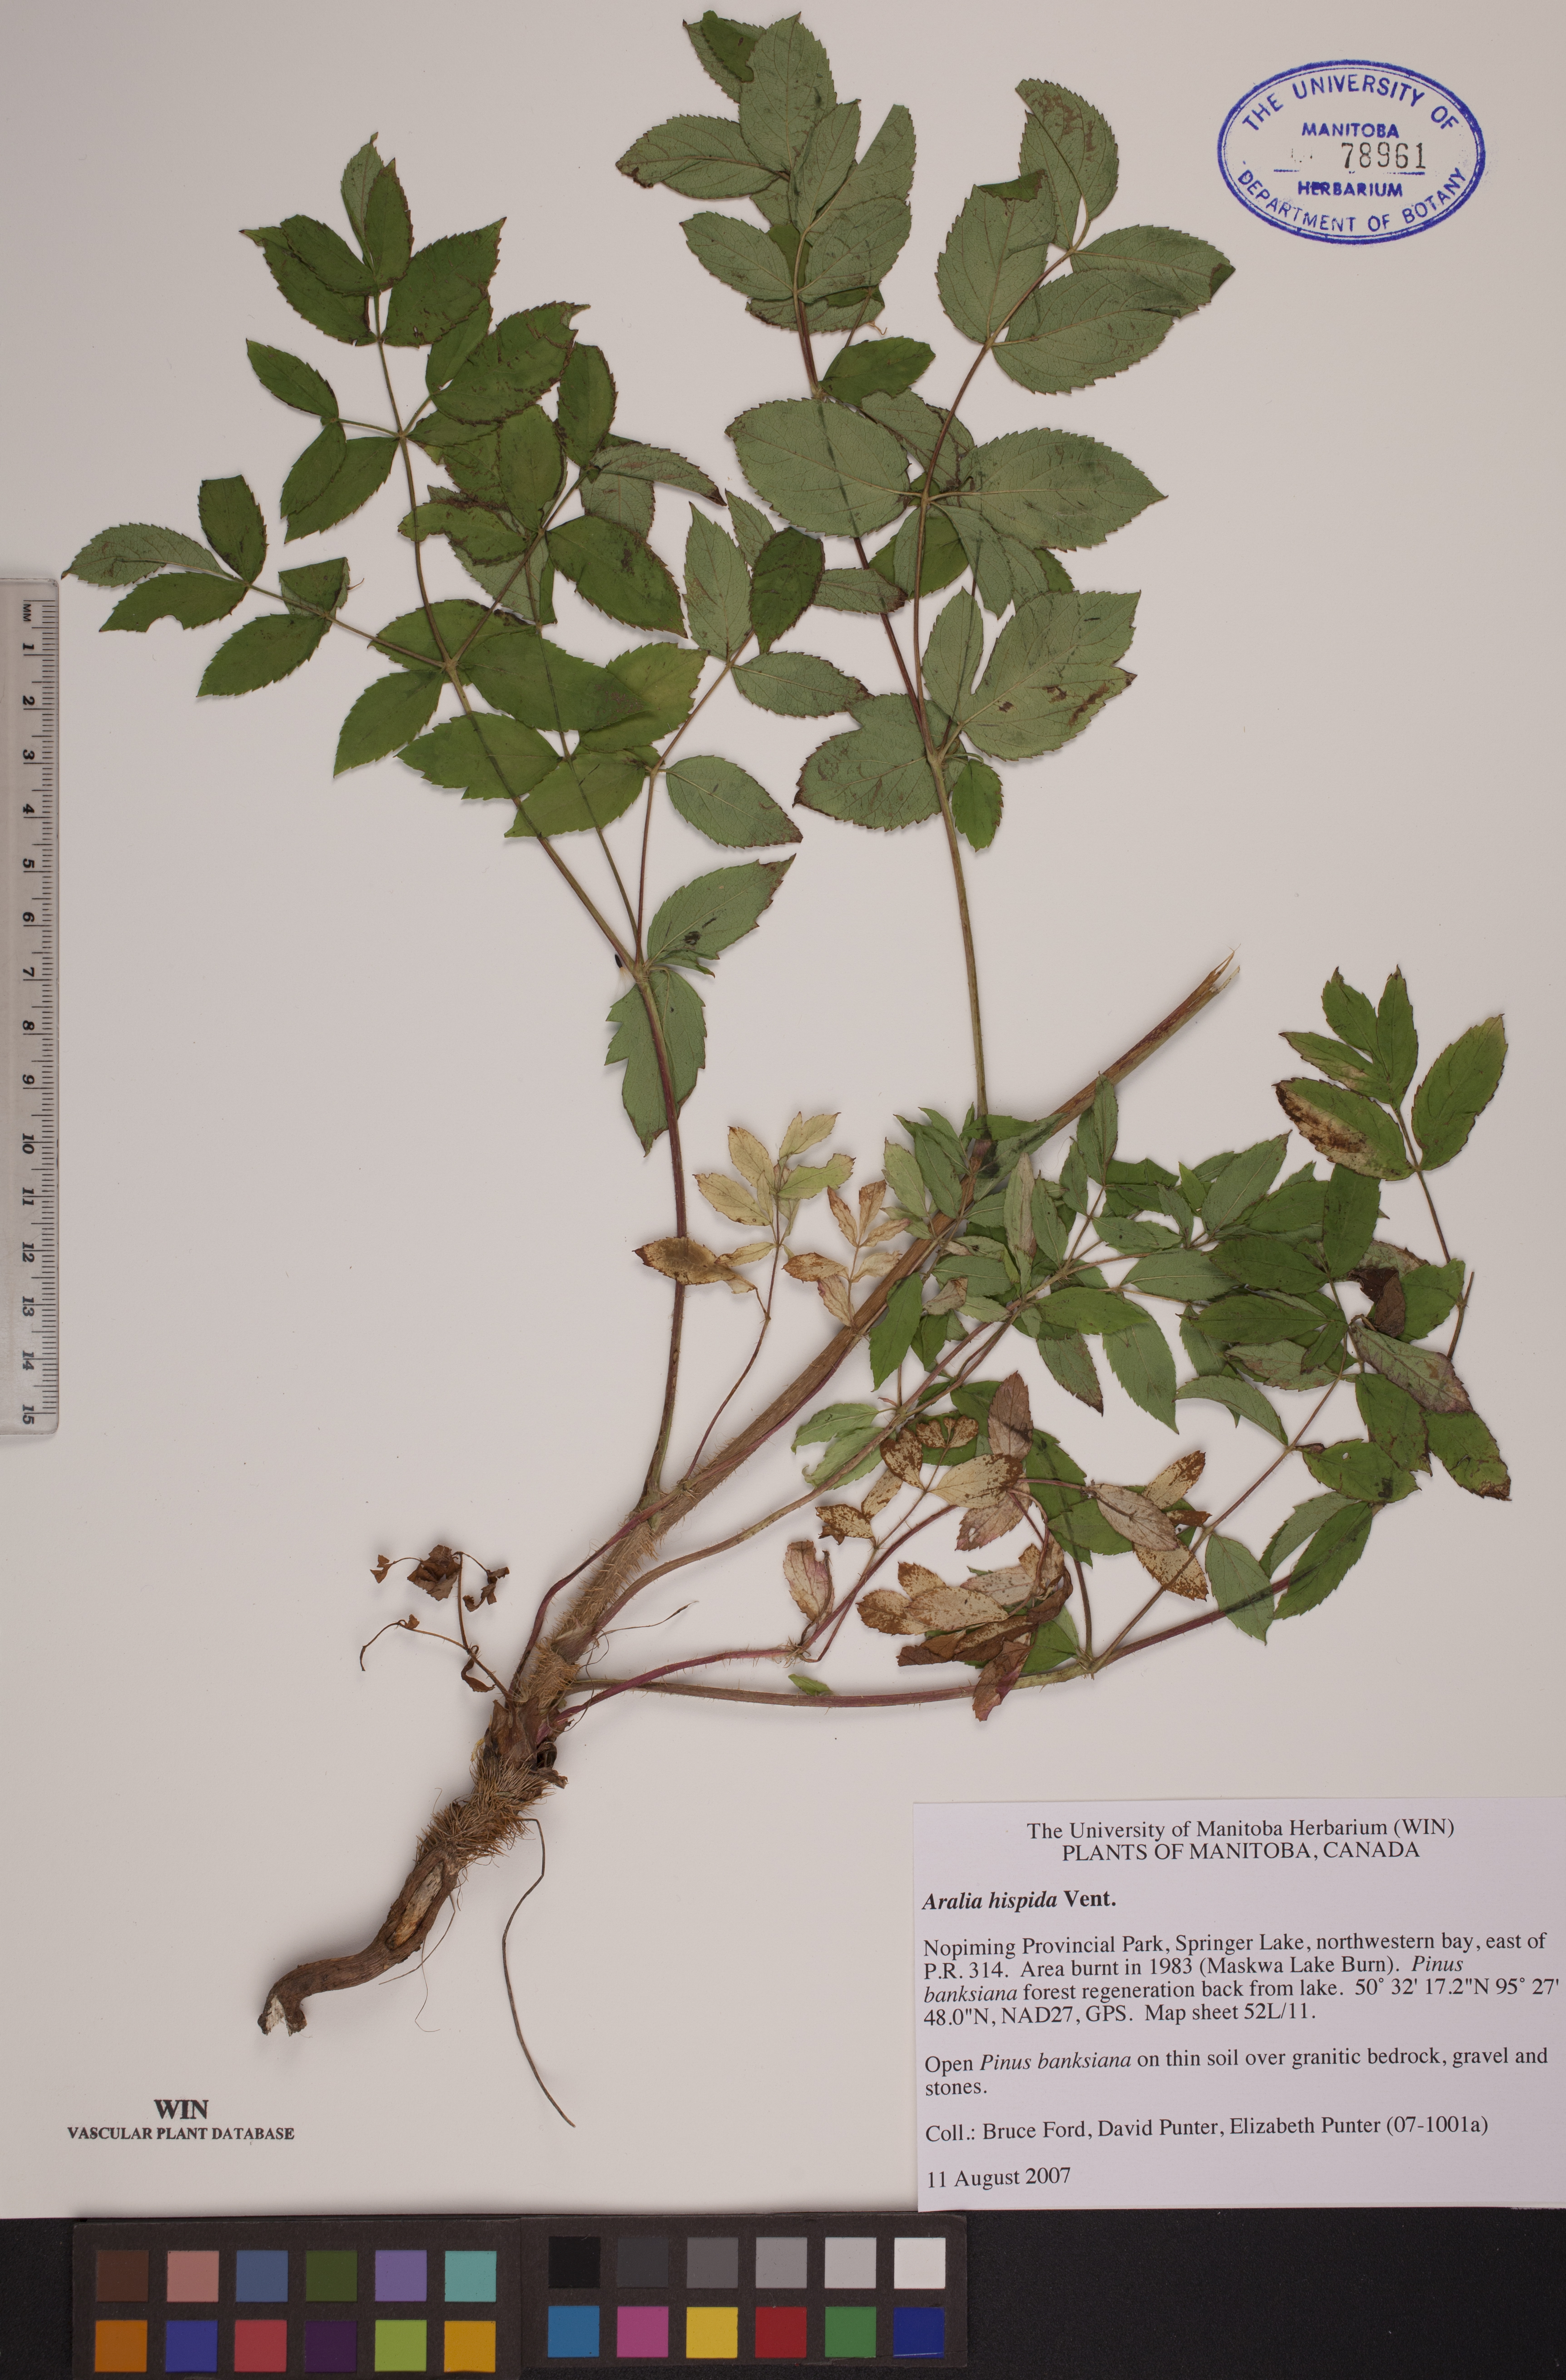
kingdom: Plantae
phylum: Tracheophyta
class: Magnoliopsida
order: Apiales
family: Araliaceae
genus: Aralia
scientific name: Aralia hispida
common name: Bristly sarsaparilla
